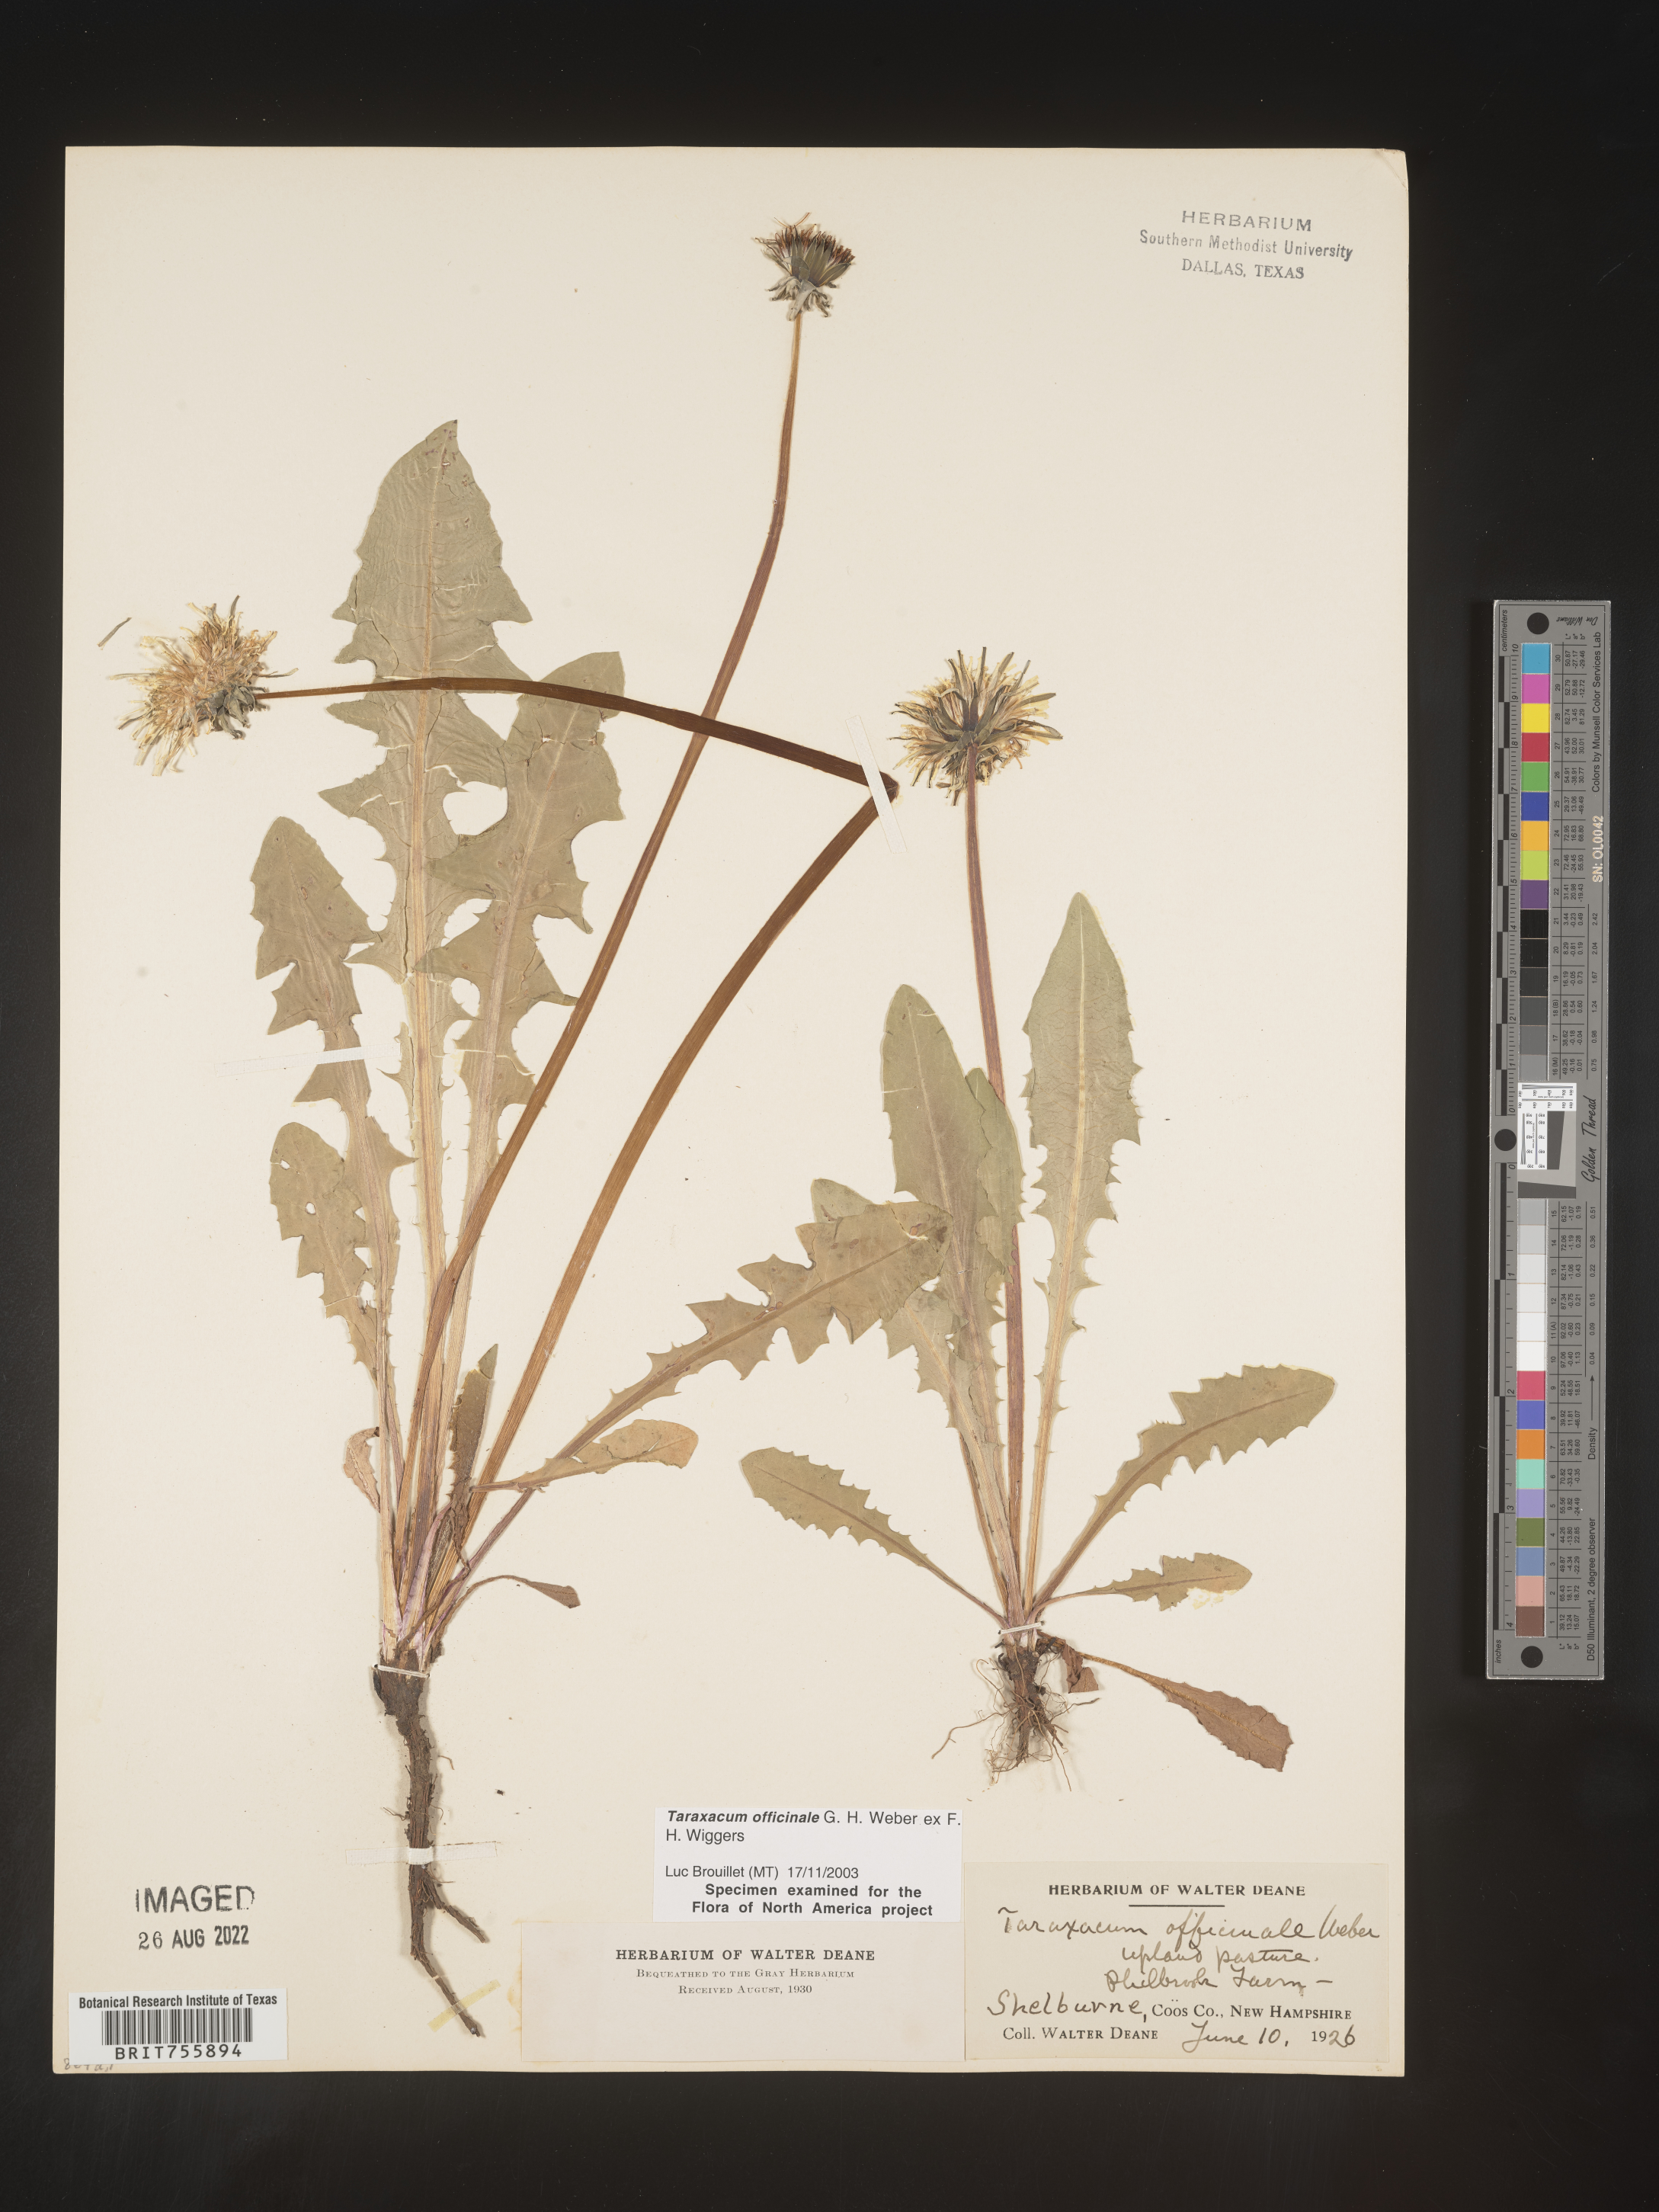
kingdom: Plantae
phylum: Tracheophyta
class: Magnoliopsida
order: Asterales
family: Asteraceae
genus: Taraxacum
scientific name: Taraxacum officinale
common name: Common dandelion
